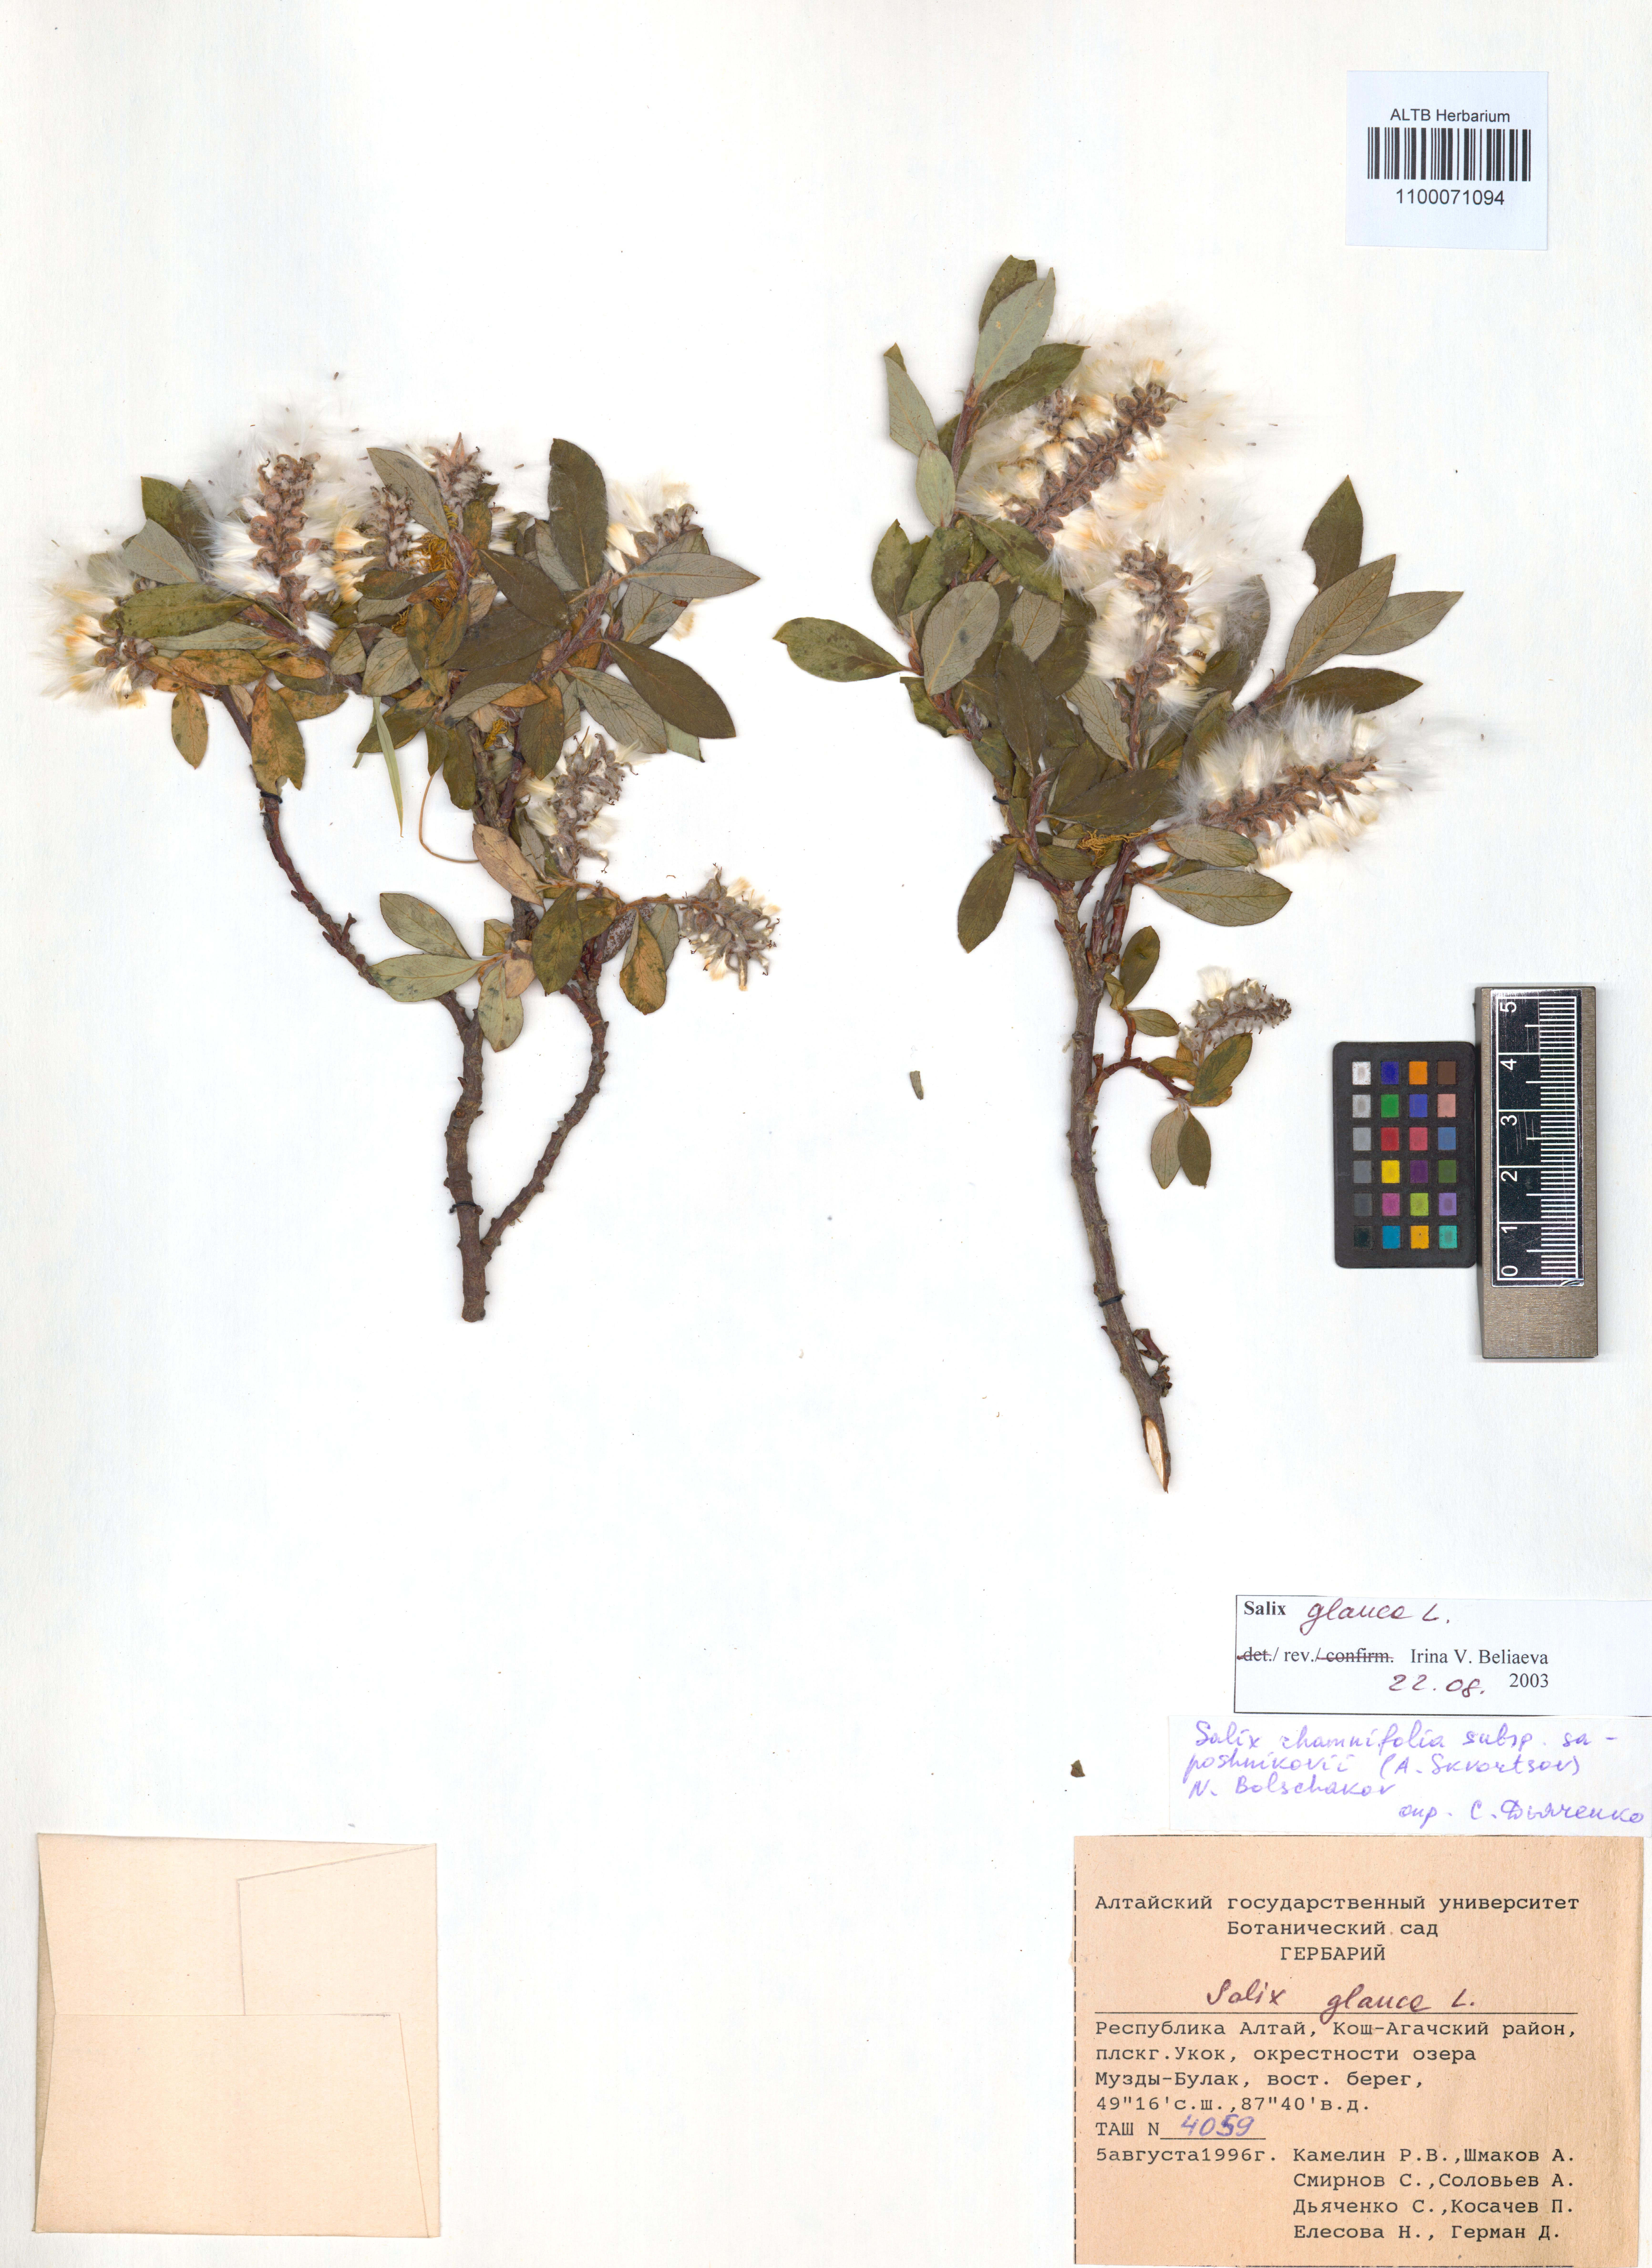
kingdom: Plantae
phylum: Tracheophyta
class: Magnoliopsida
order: Malpighiales
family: Salicaceae
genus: Salix
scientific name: Salix glauca
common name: Glaucous willow
